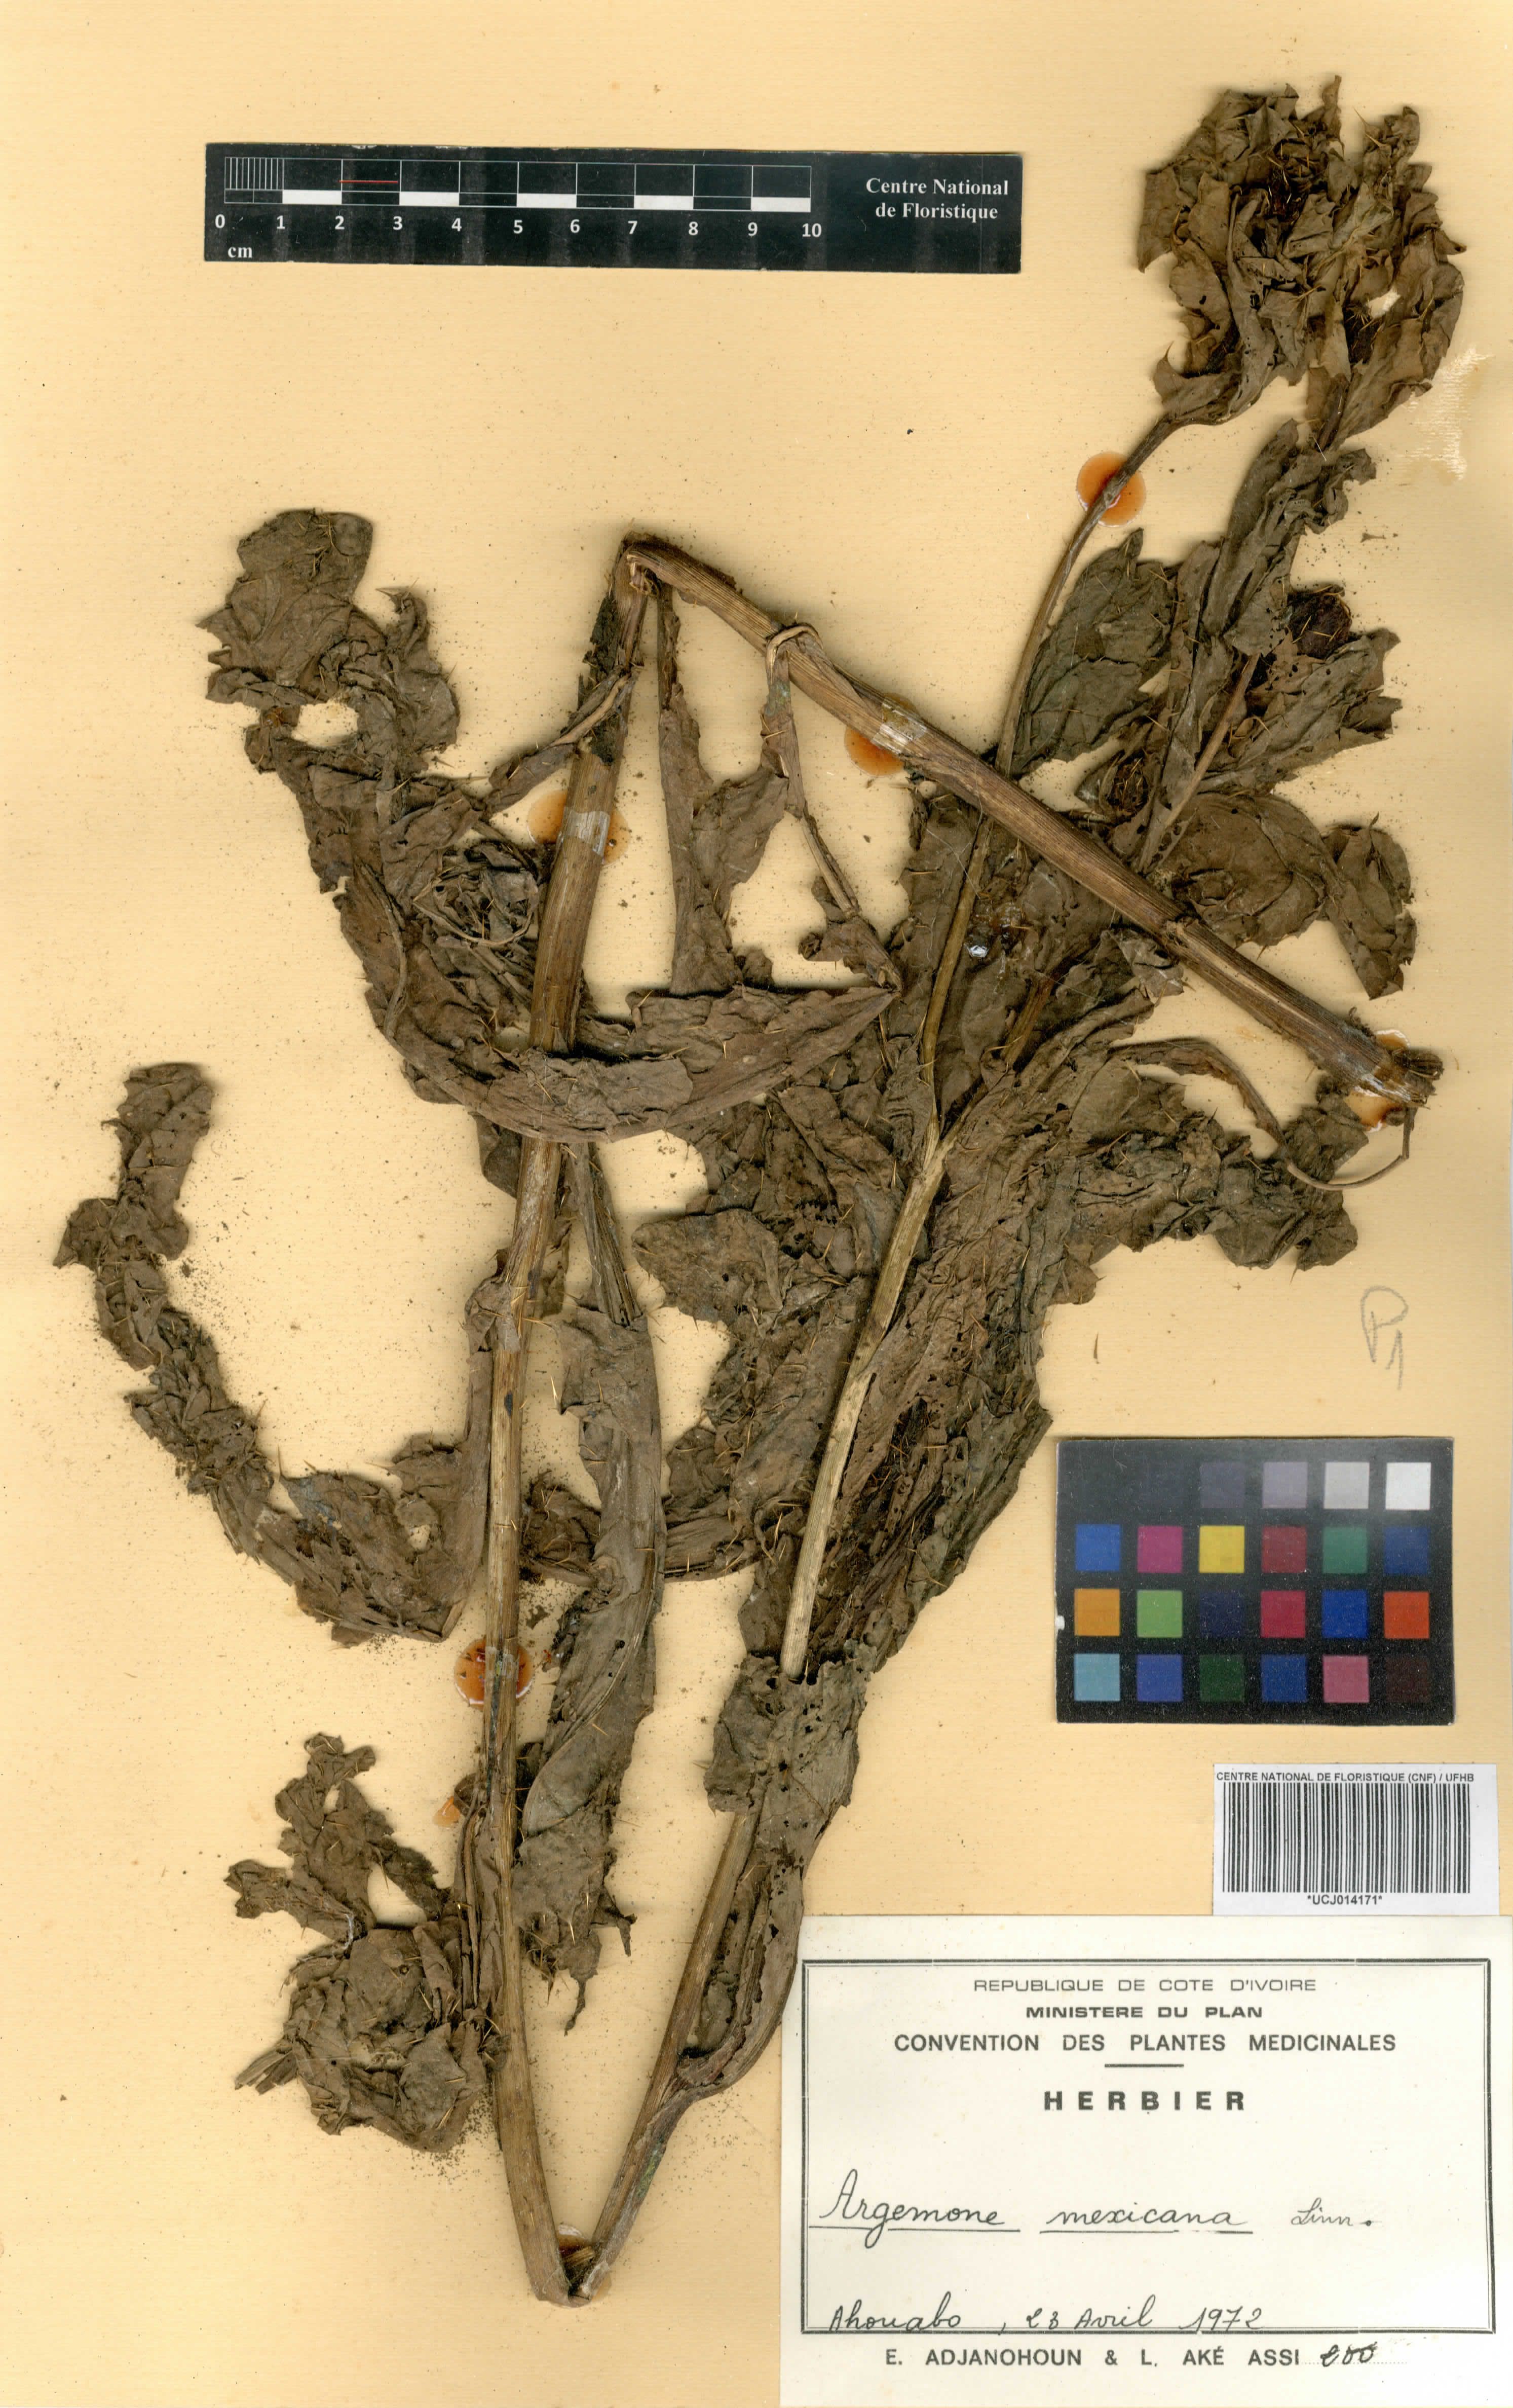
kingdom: Plantae
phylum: Tracheophyta
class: Magnoliopsida
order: Ranunculales
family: Papaveraceae
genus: Argemone
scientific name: Argemone mexicana
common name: Mexican poppy
